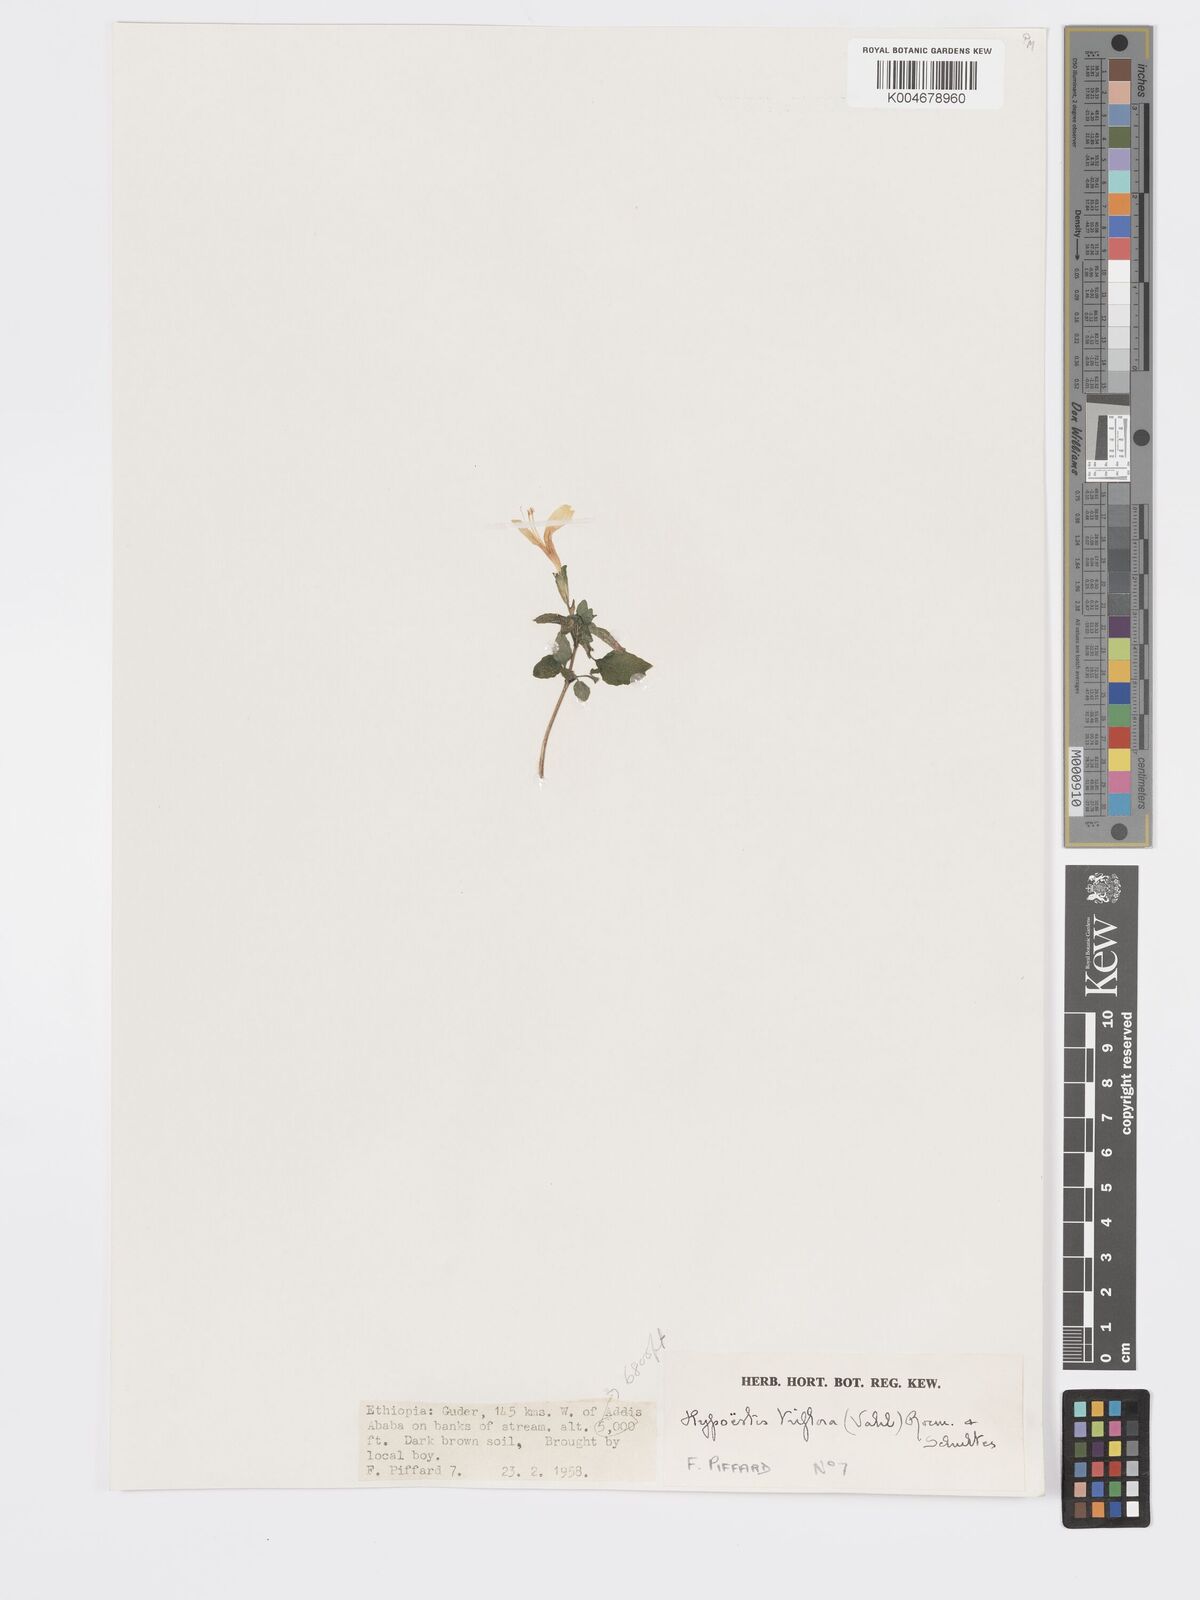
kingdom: Plantae
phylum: Tracheophyta
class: Magnoliopsida
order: Lamiales
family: Acanthaceae
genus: Hypoestes
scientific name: Hypoestes triflora
